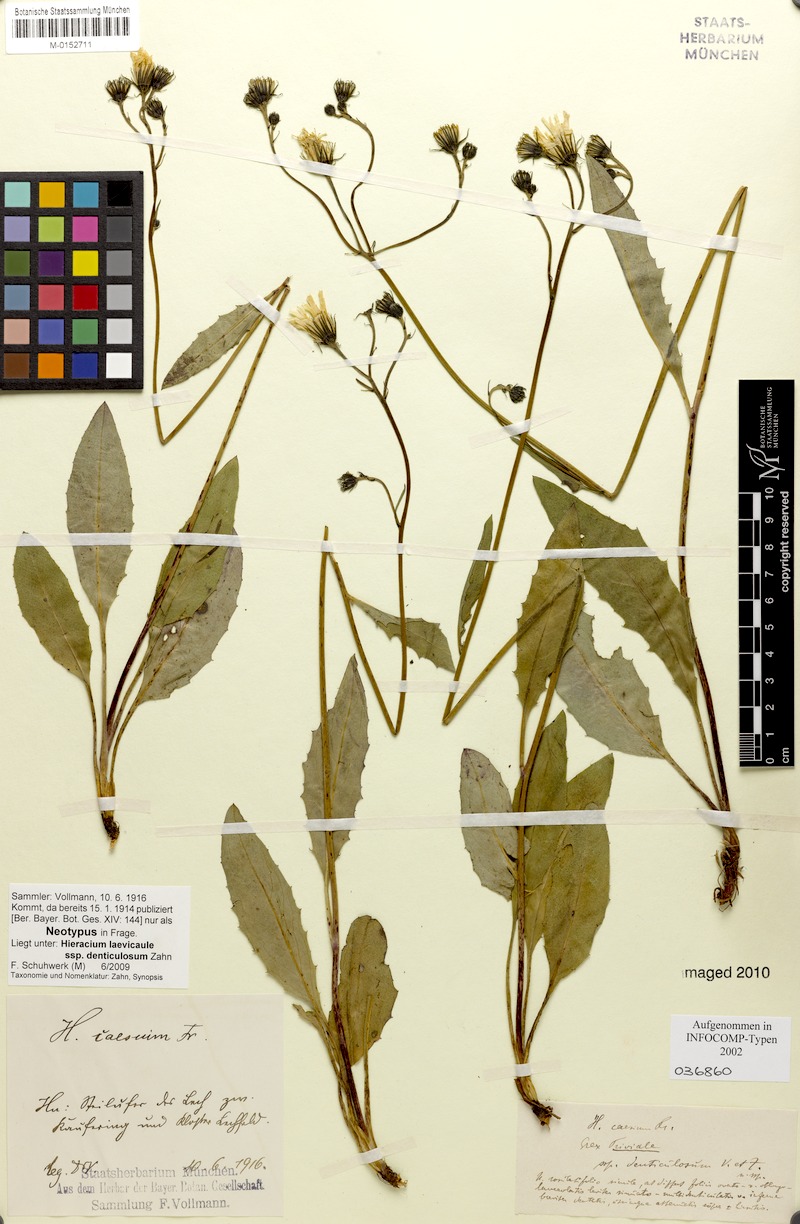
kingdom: Plantae
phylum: Tracheophyta
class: Magnoliopsida
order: Asterales
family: Asteraceae
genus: Hieracium
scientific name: Hieracium levicaule
